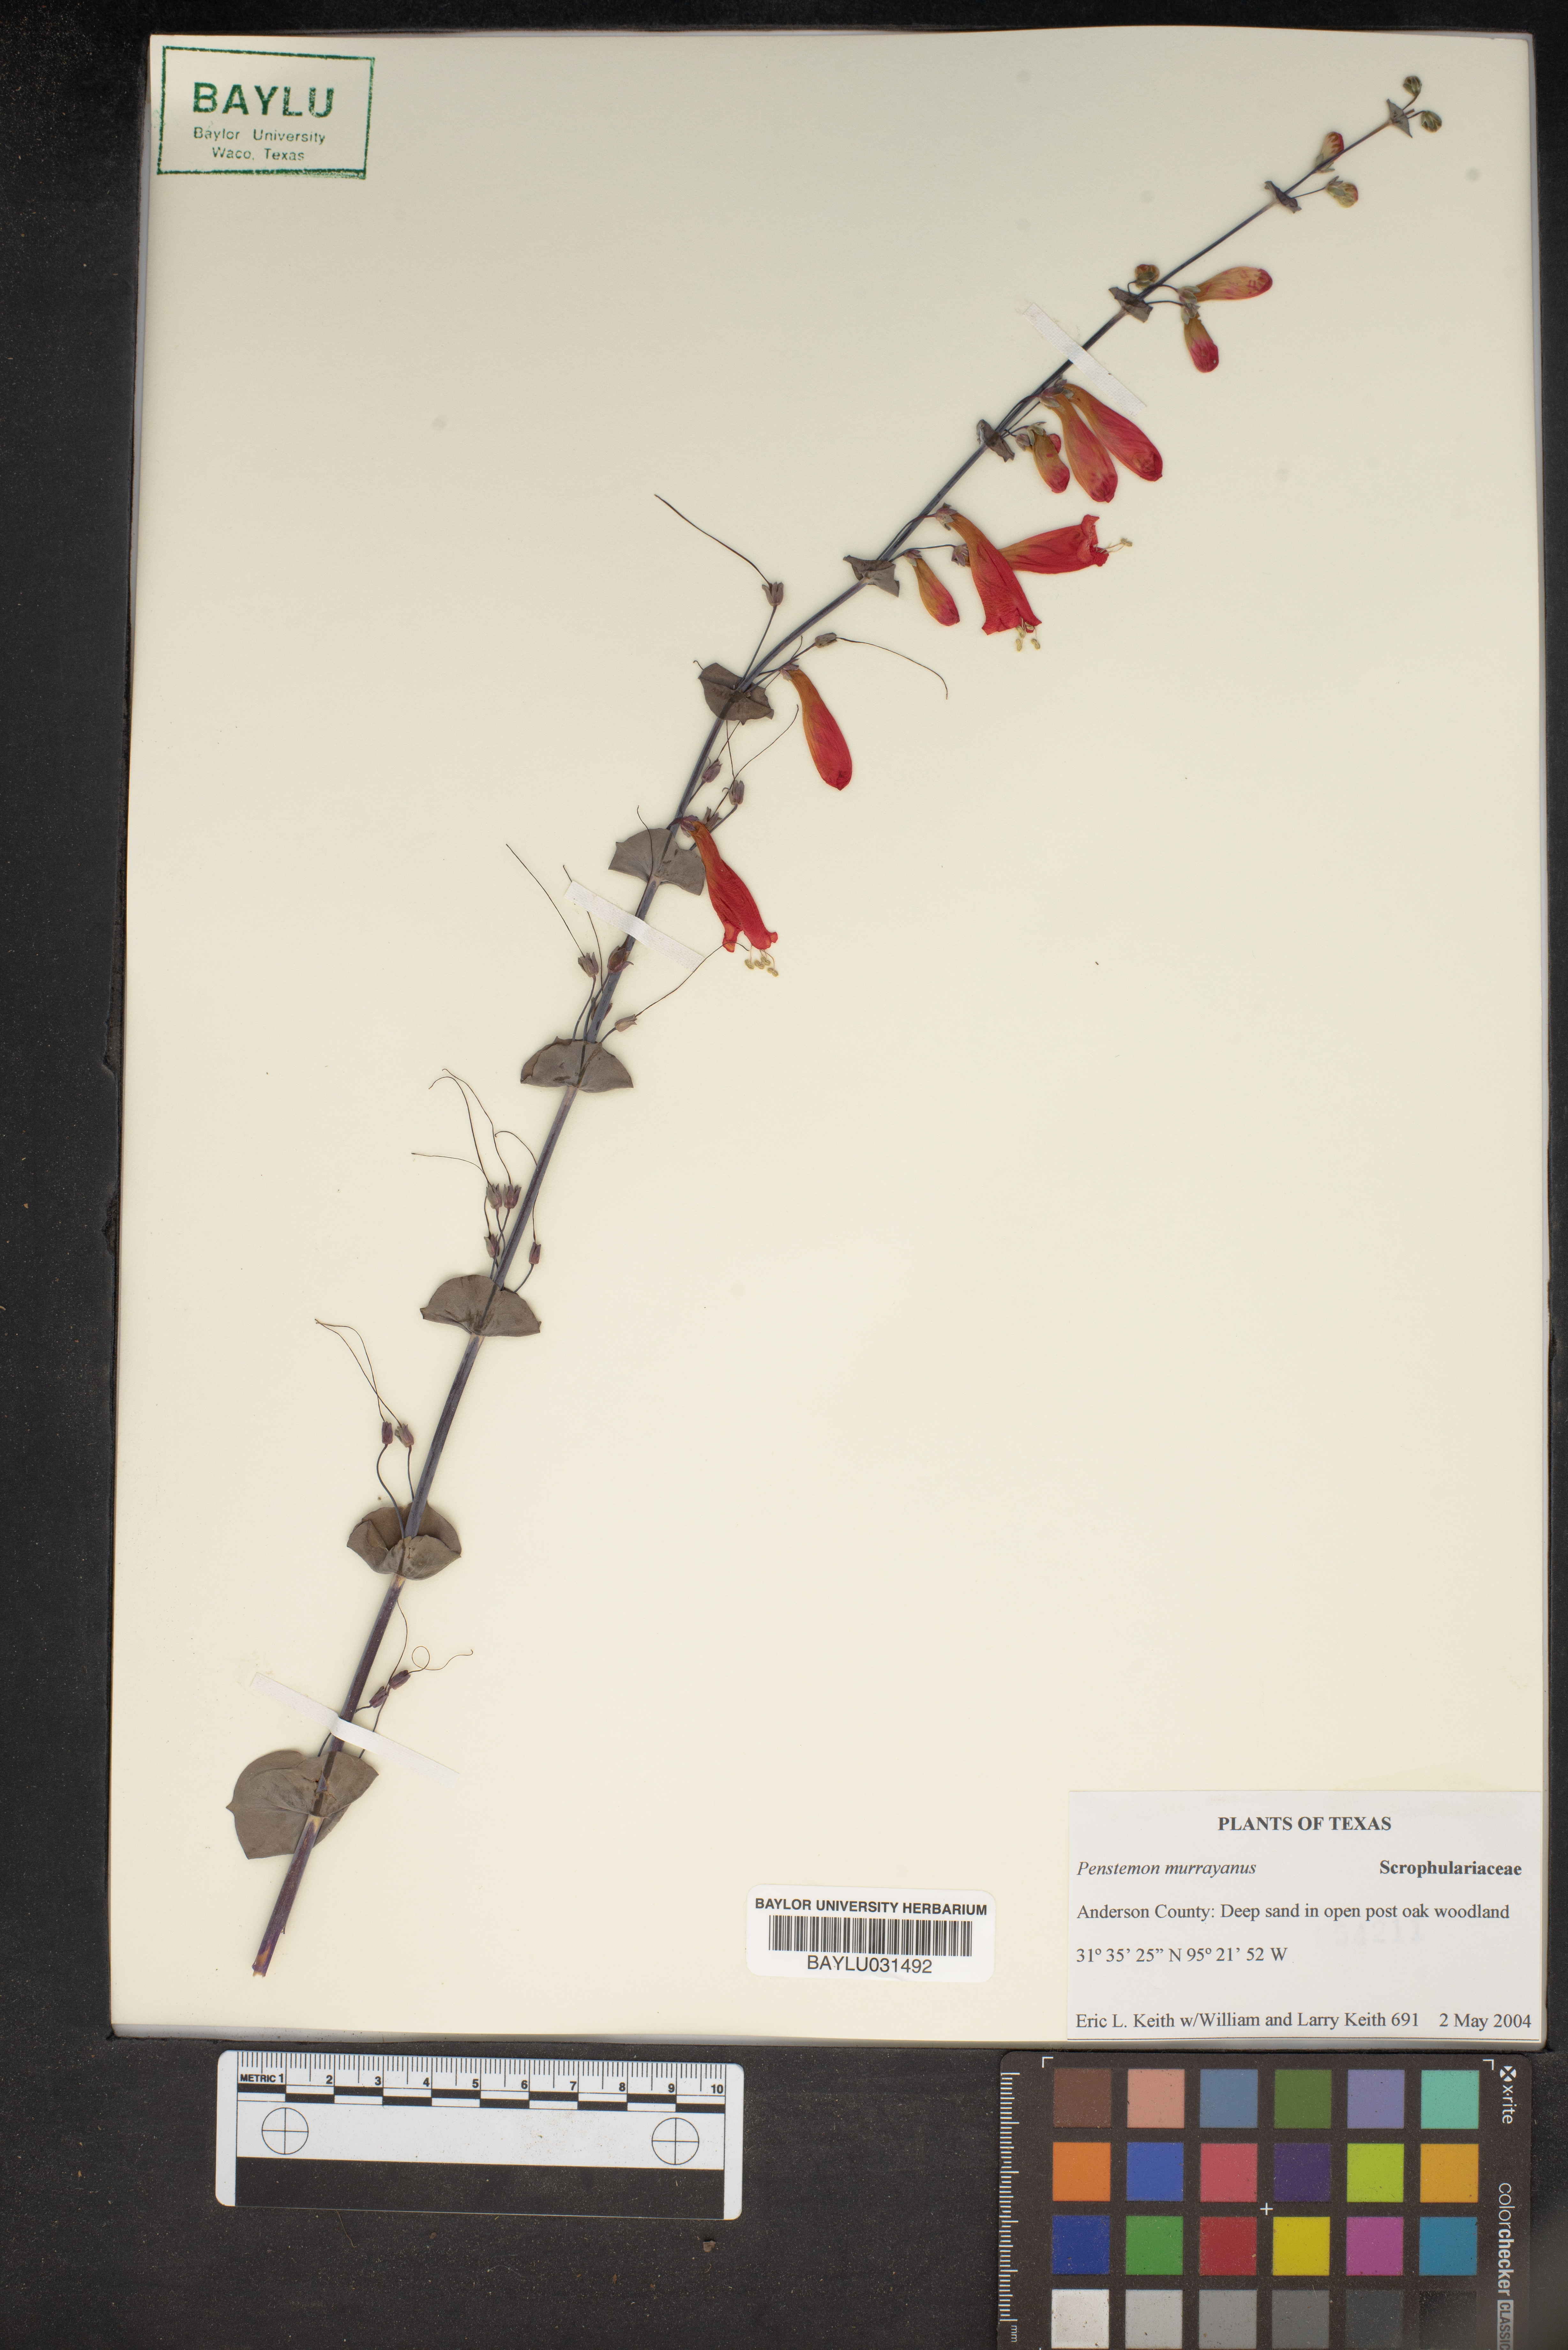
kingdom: Plantae
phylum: Tracheophyta
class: Magnoliopsida
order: Lamiales
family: Plantaginaceae
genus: Penstemon
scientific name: Penstemon murrayanus
